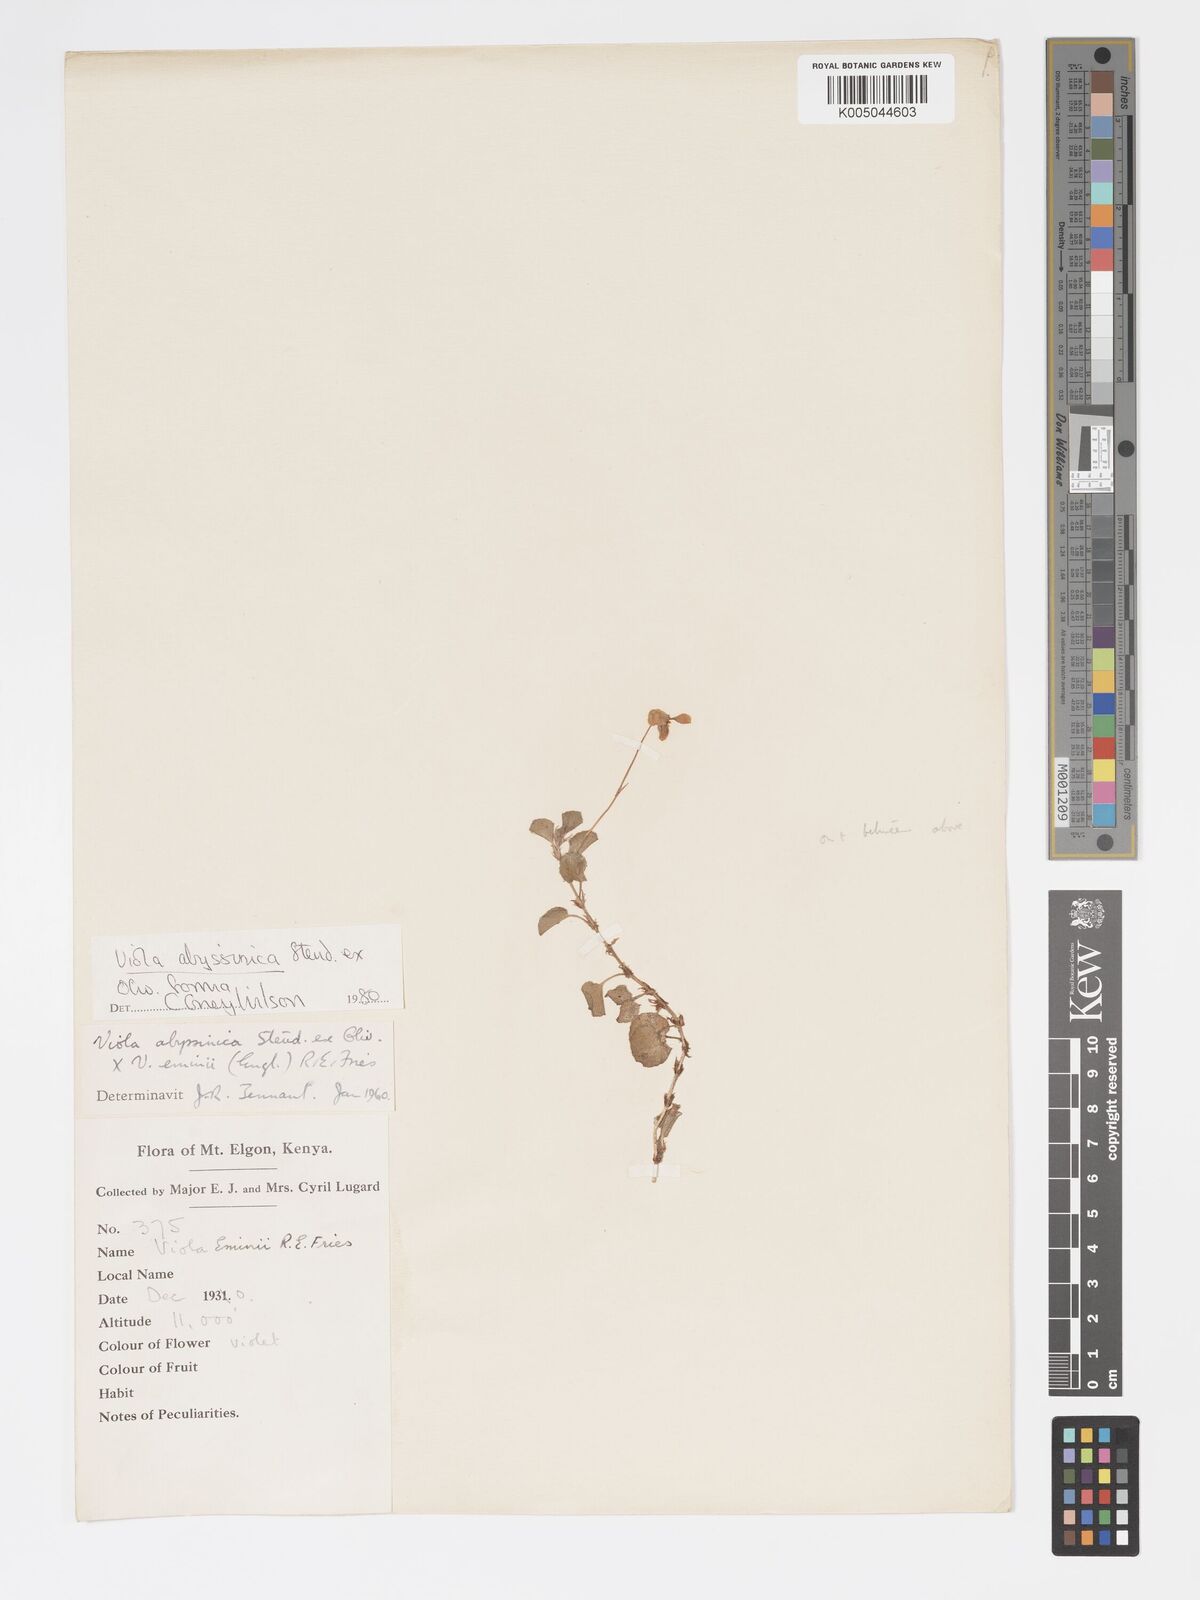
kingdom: Plantae
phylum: Tracheophyta
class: Magnoliopsida
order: Malpighiales
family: Violaceae
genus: Viola
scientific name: Viola abyssinica
